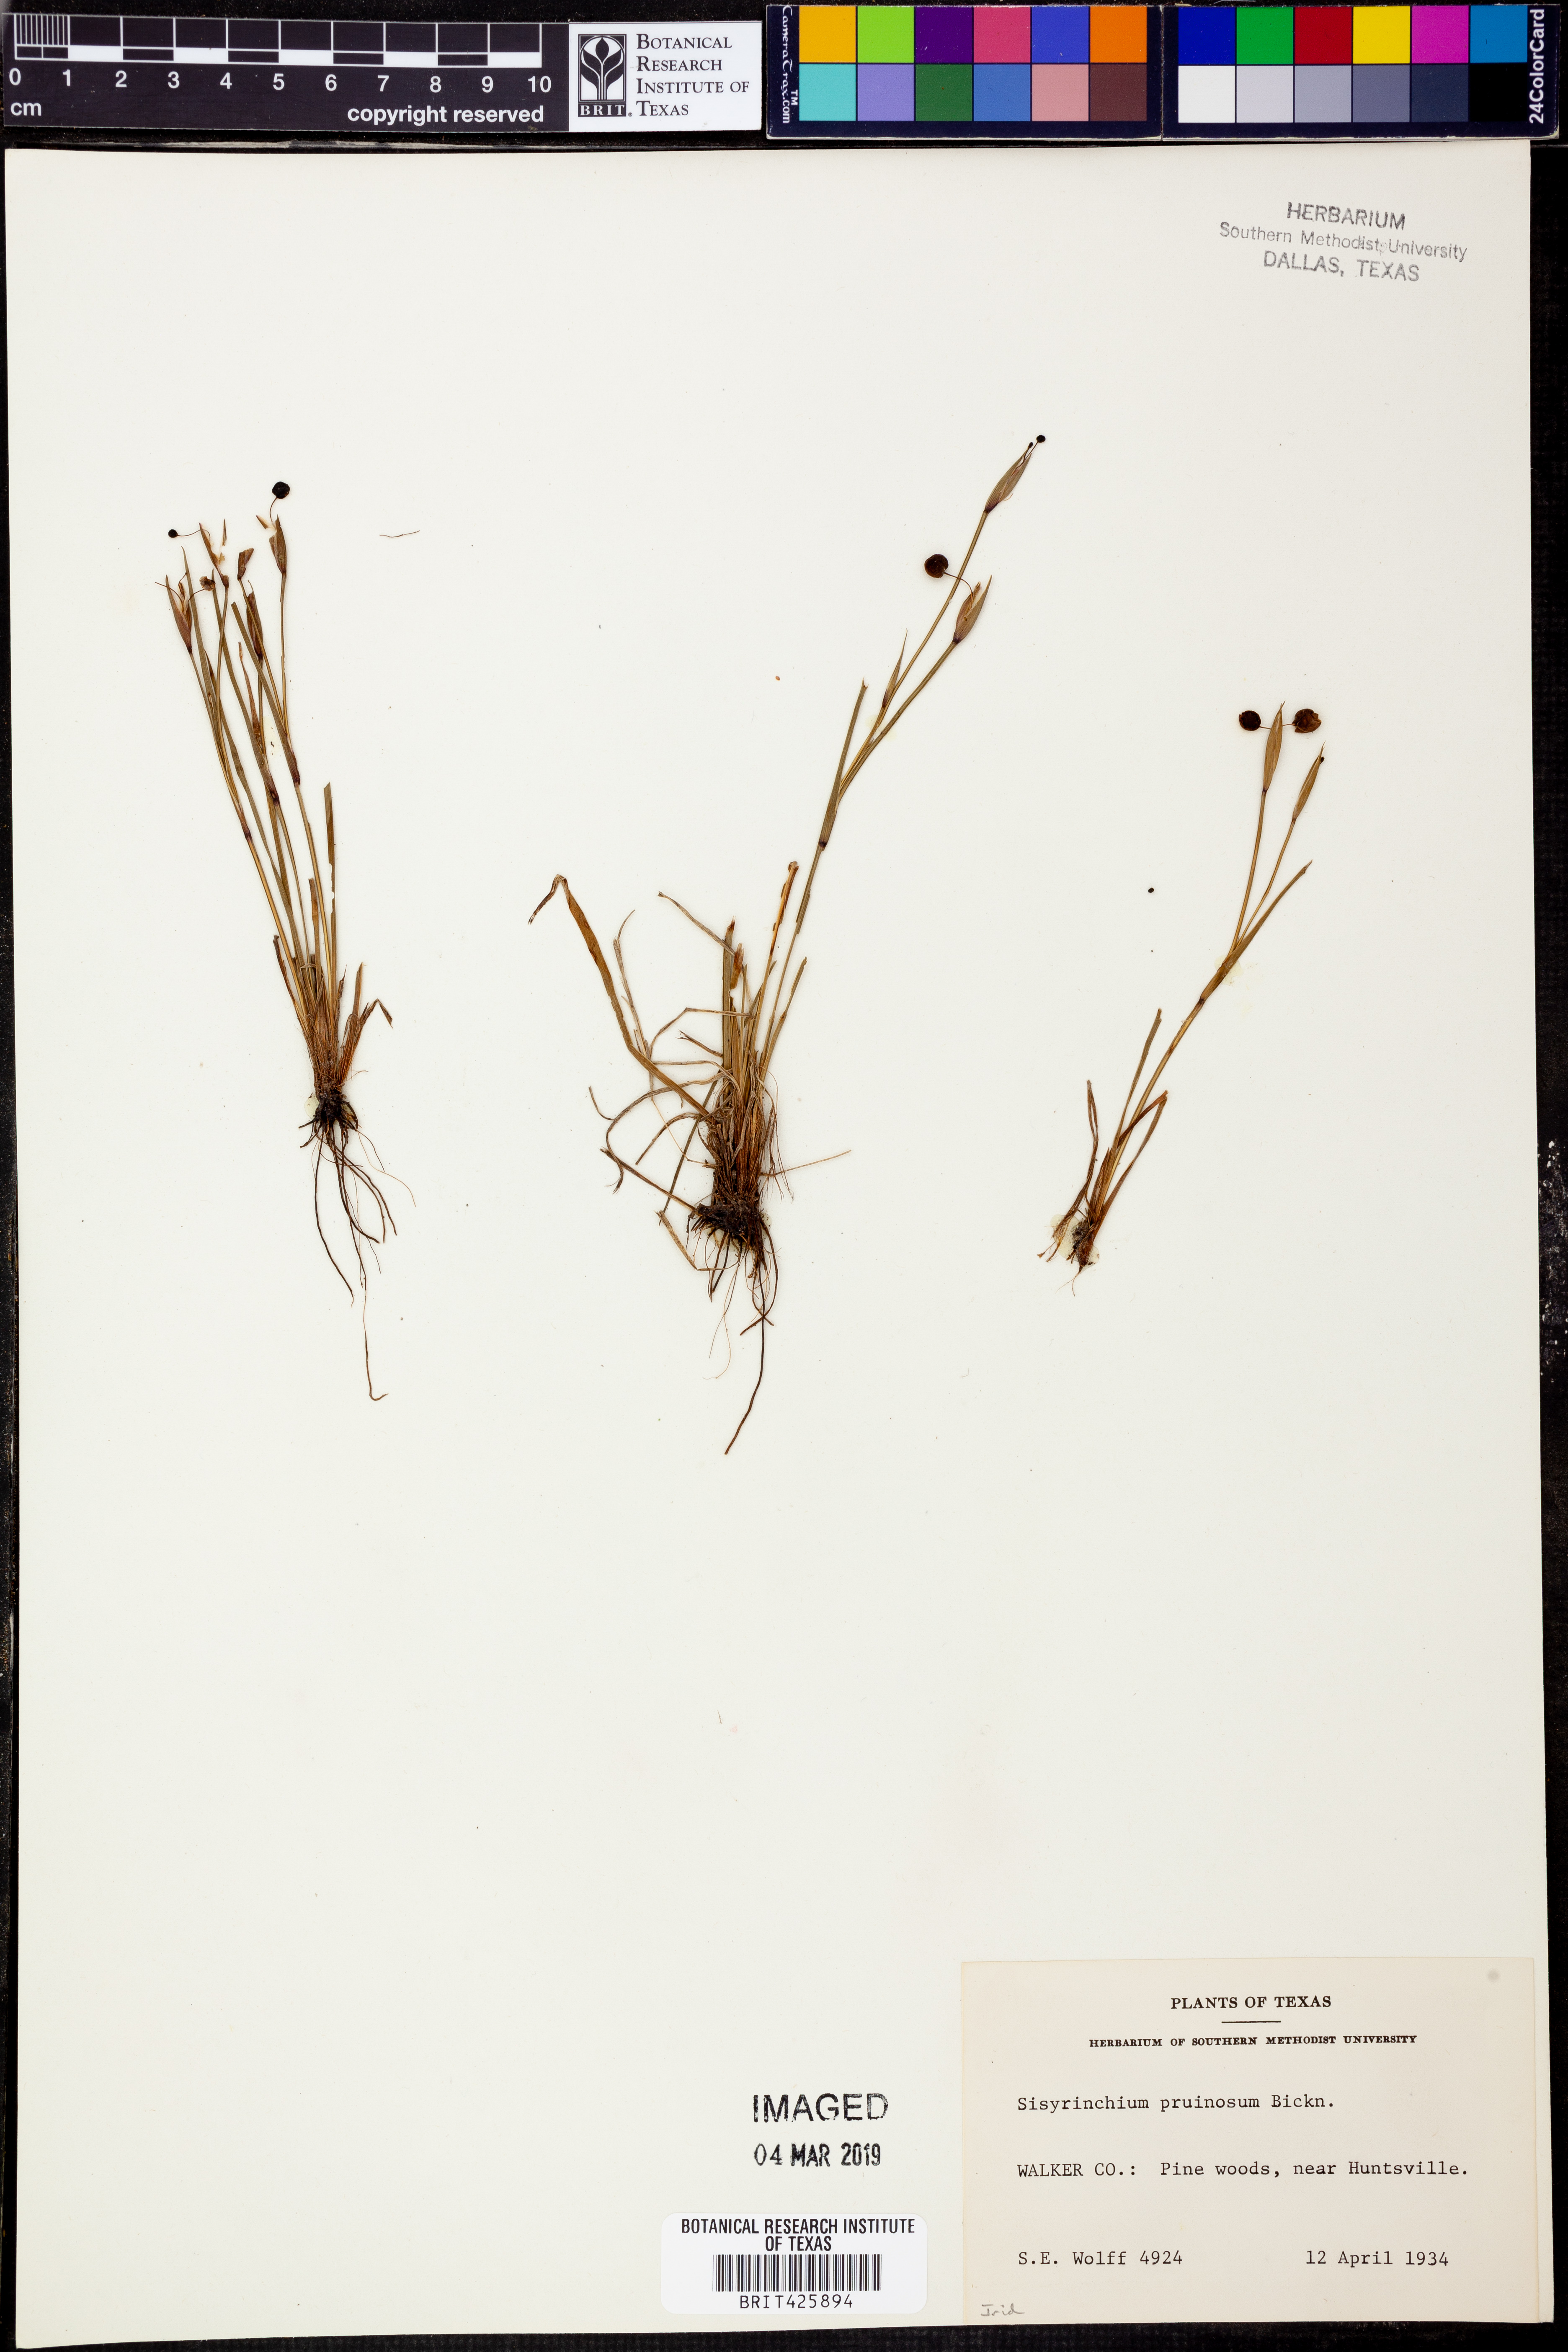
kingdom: Plantae
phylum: Tracheophyta
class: Liliopsida
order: Asparagales
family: Iridaceae
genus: Sisyrinchium
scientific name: Sisyrinchium pruinosum
